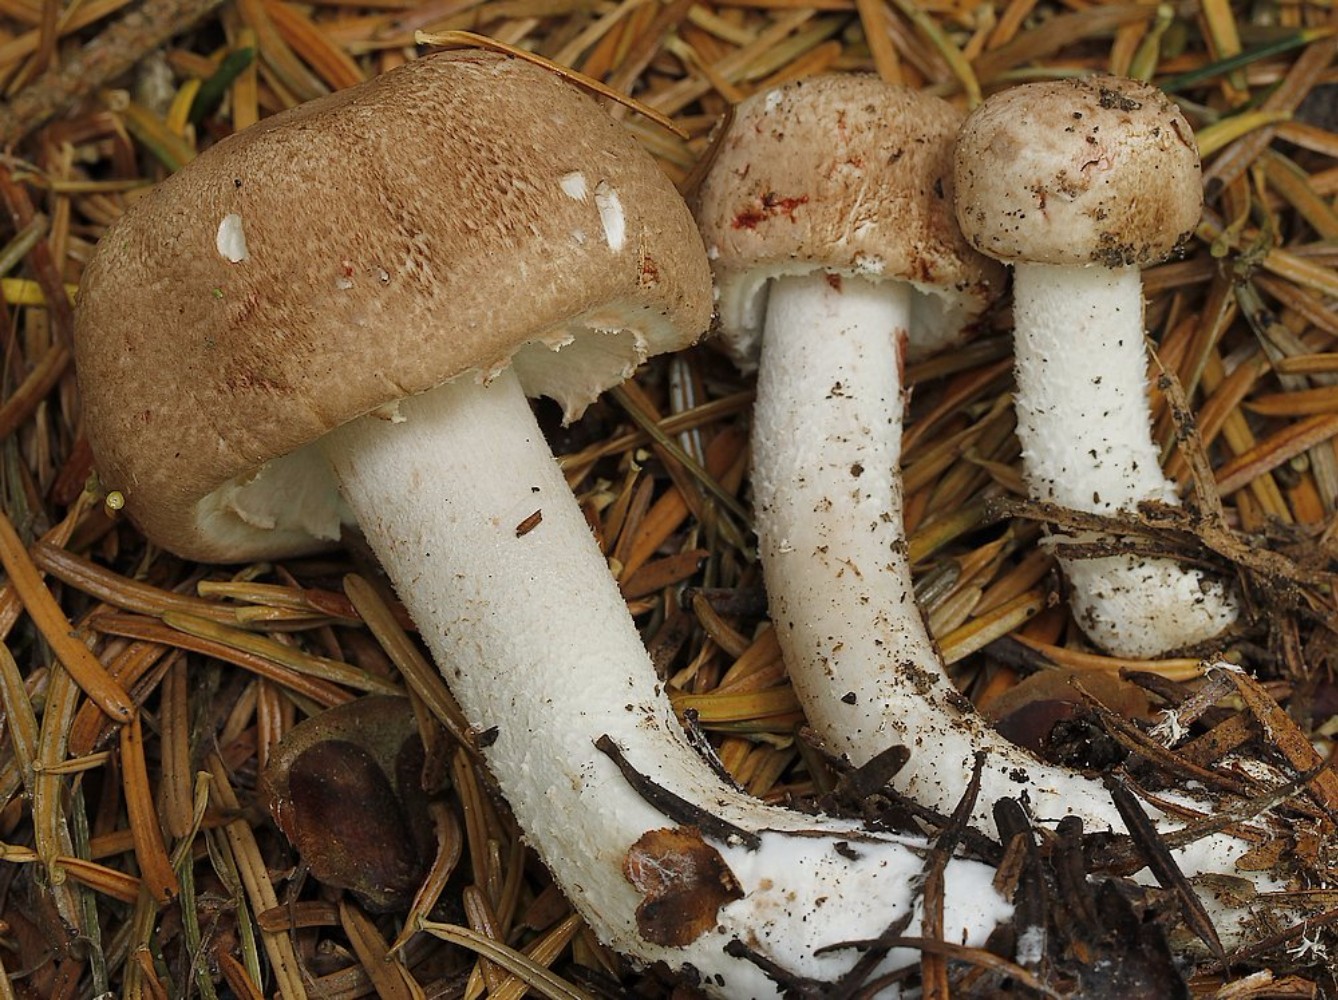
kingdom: Fungi
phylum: Basidiomycota
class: Agaricomycetes
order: Agaricales
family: Agaricaceae
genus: Agaricus
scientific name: Agaricus sylvaticus
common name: lille blod-champignon
